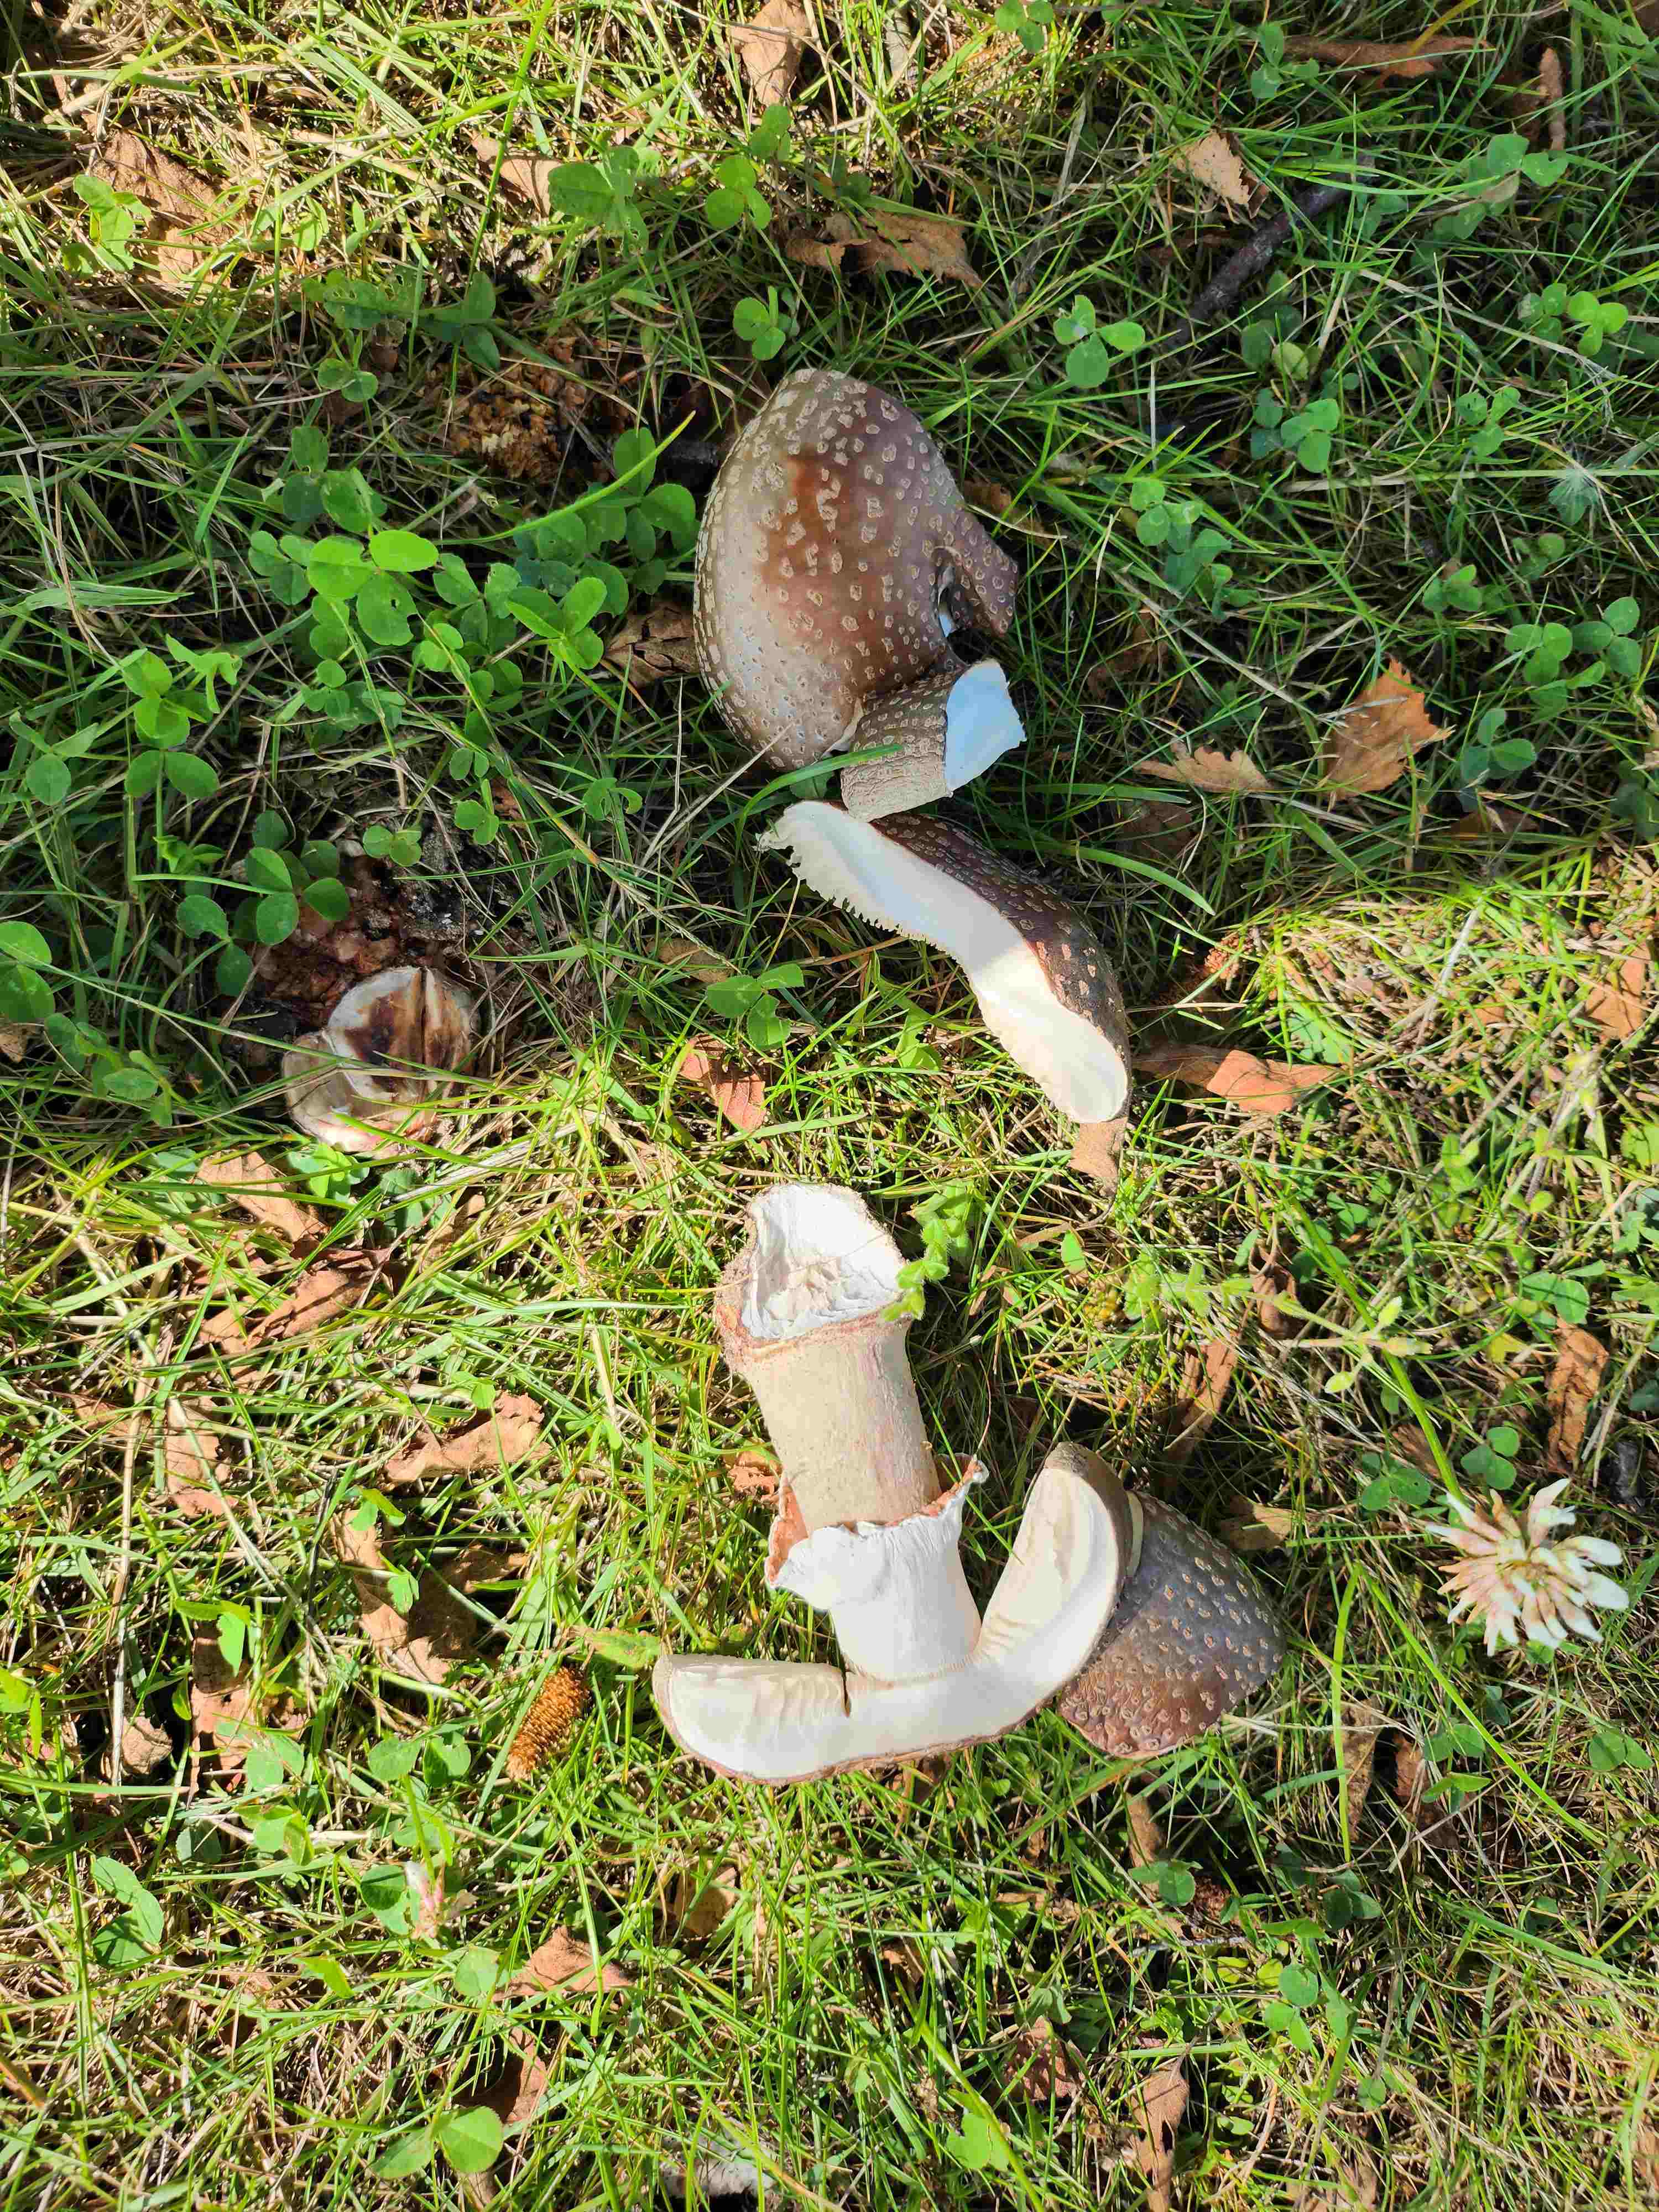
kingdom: Fungi
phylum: Basidiomycota
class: Agaricomycetes
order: Agaricales
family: Amanitaceae
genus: Amanita
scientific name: Amanita rubescens
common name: rødmende fluesvamp
